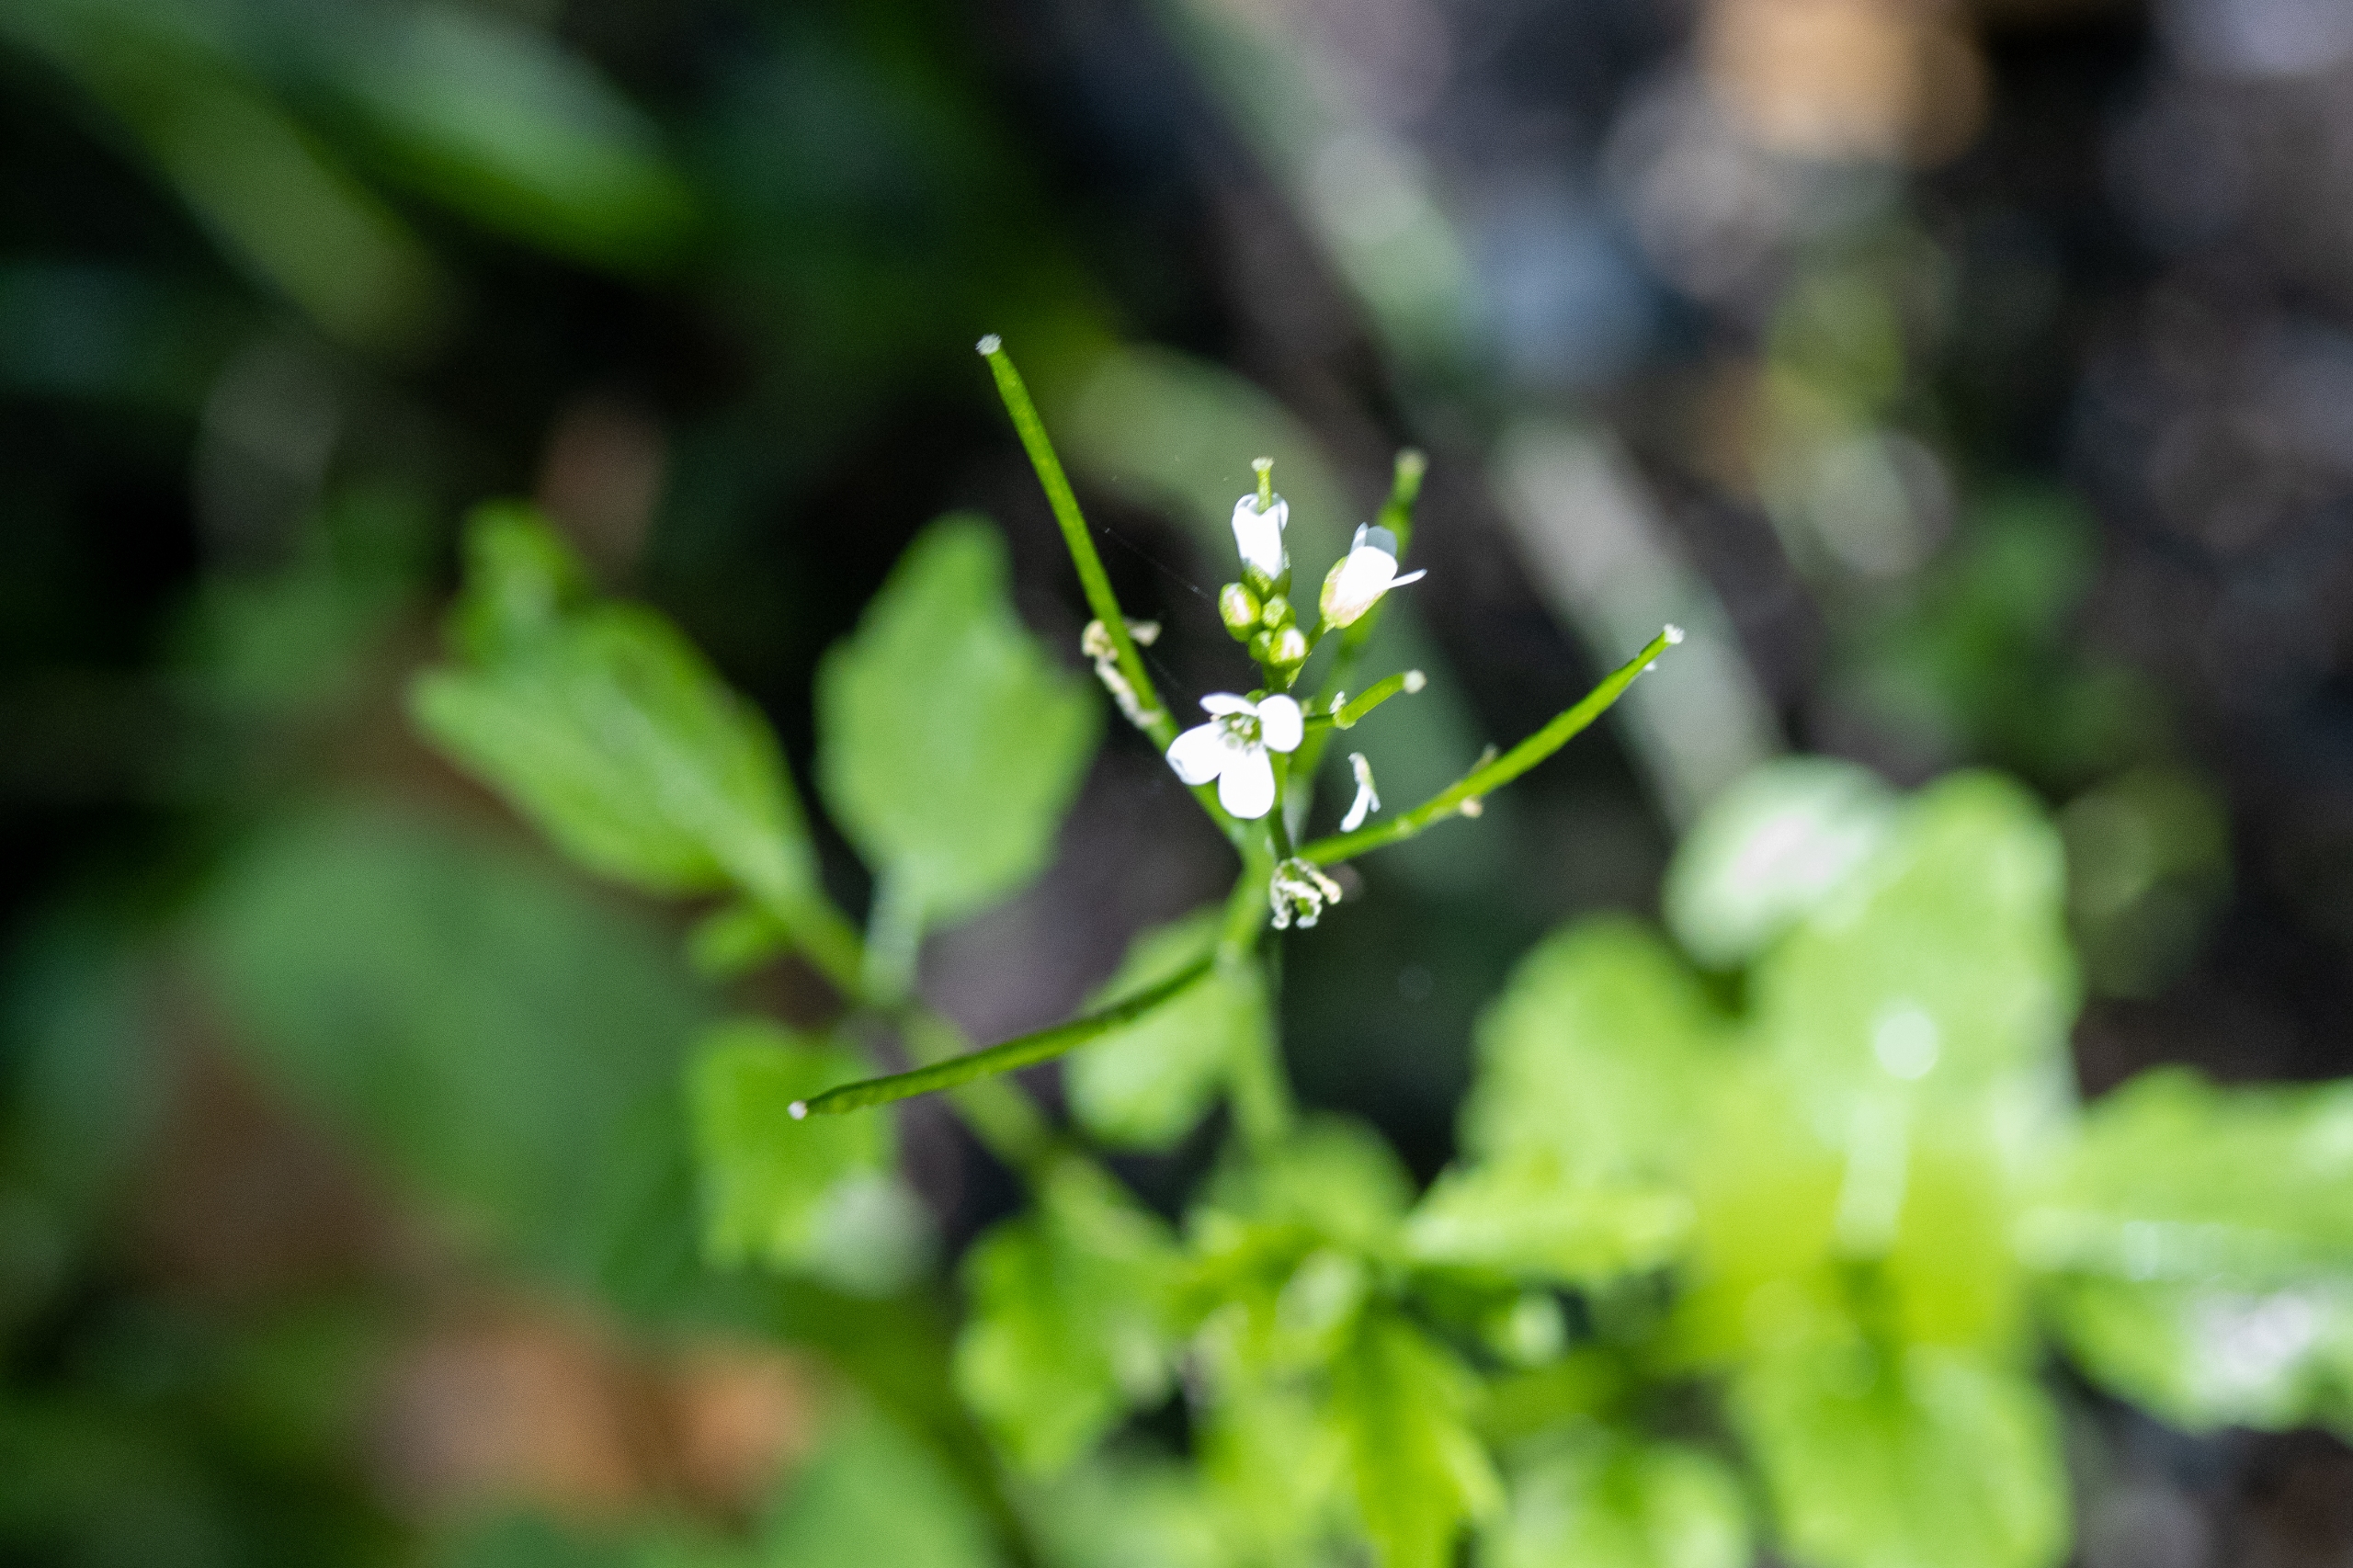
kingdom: Plantae
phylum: Tracheophyta
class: Magnoliopsida
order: Brassicales
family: Brassicaceae
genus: Cardamine
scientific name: Cardamine flexuosa
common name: Skov-springklap
